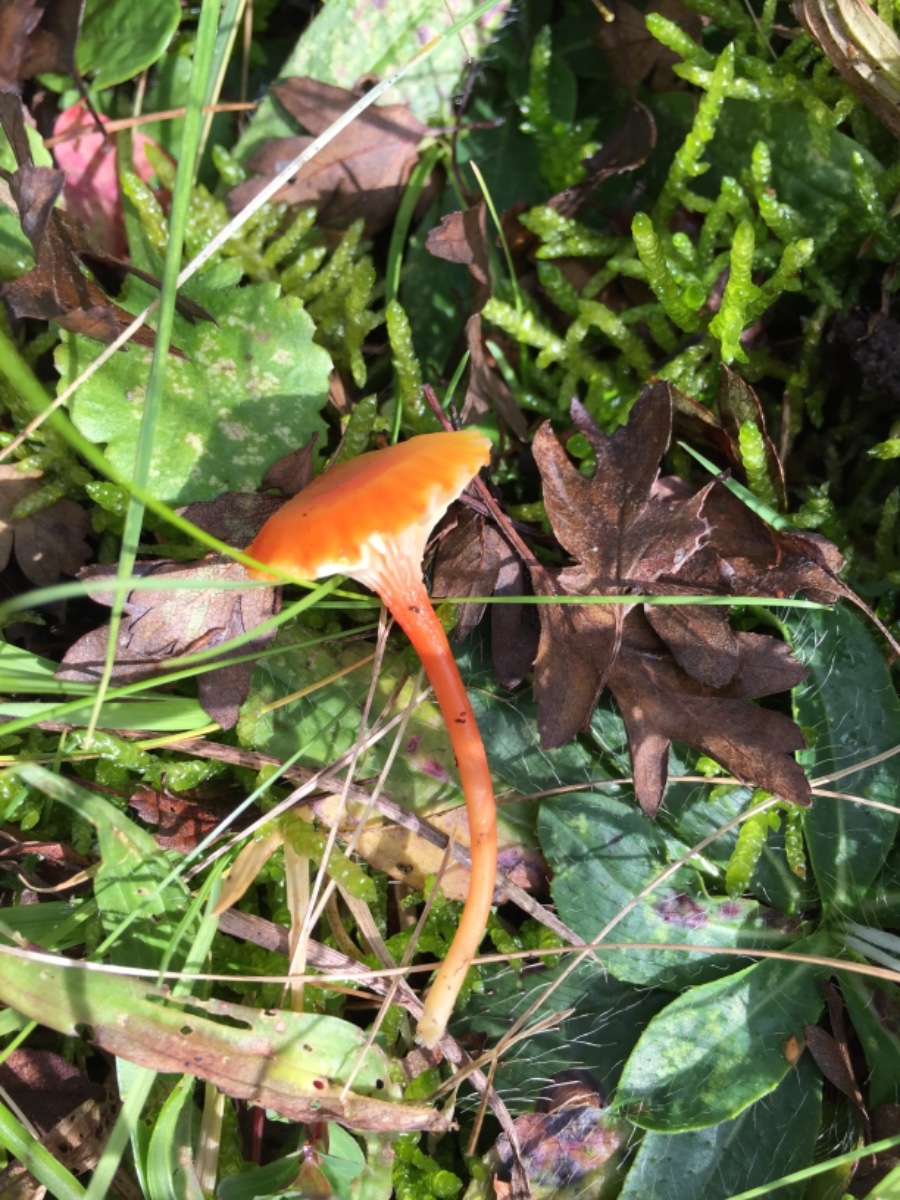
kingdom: Fungi
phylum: Basidiomycota
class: Agaricomycetes
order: Agaricales
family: Hygrophoraceae
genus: Hygrocybe
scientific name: Hygrocybe cantharellus
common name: kantarel-vokshat
